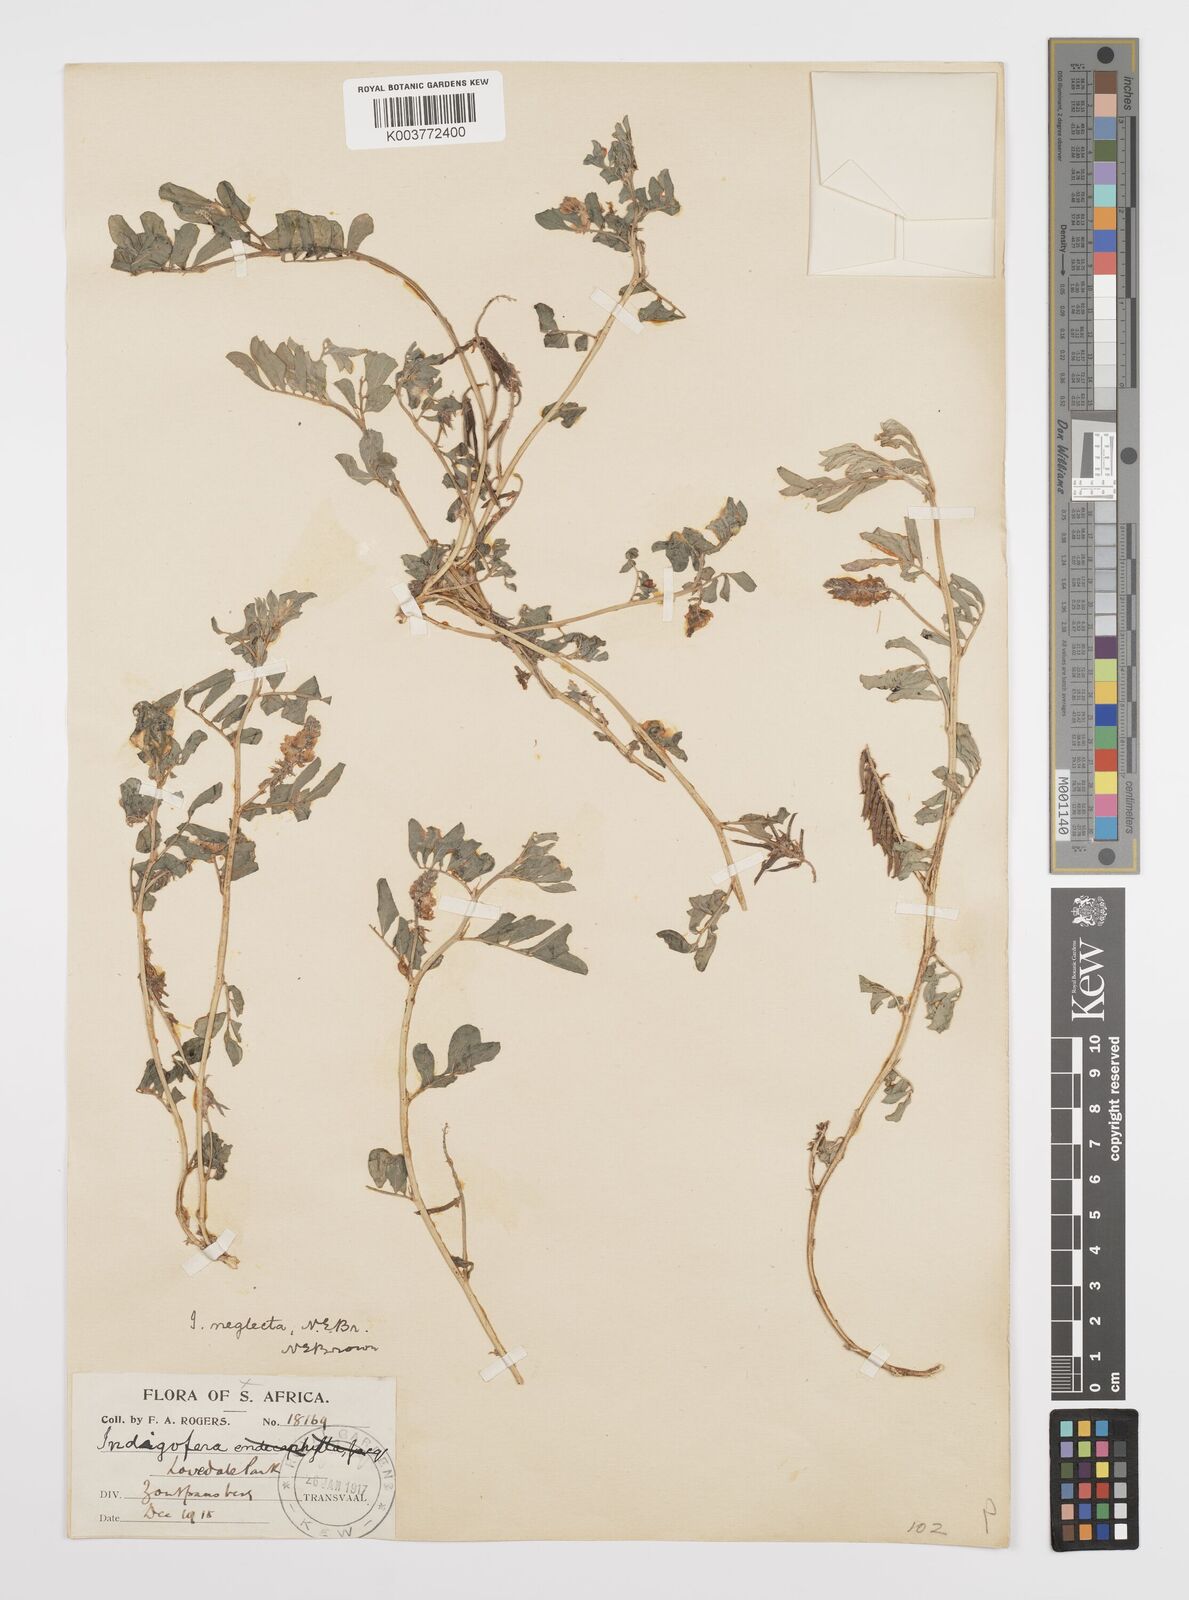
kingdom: Plantae
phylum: Tracheophyta
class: Magnoliopsida
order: Fabales
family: Fabaceae
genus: Indigofera
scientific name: Indigofera spicata
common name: Creeping indigo
